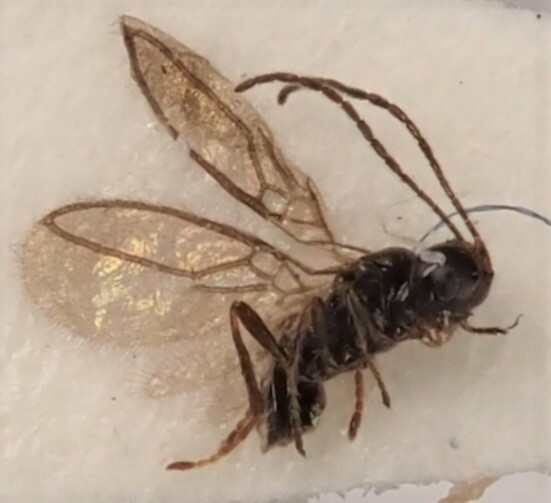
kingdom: Animalia
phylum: Arthropoda
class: Insecta
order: Hymenoptera
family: Braconidae
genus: Orthostigma
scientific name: Orthostigma maculipes
